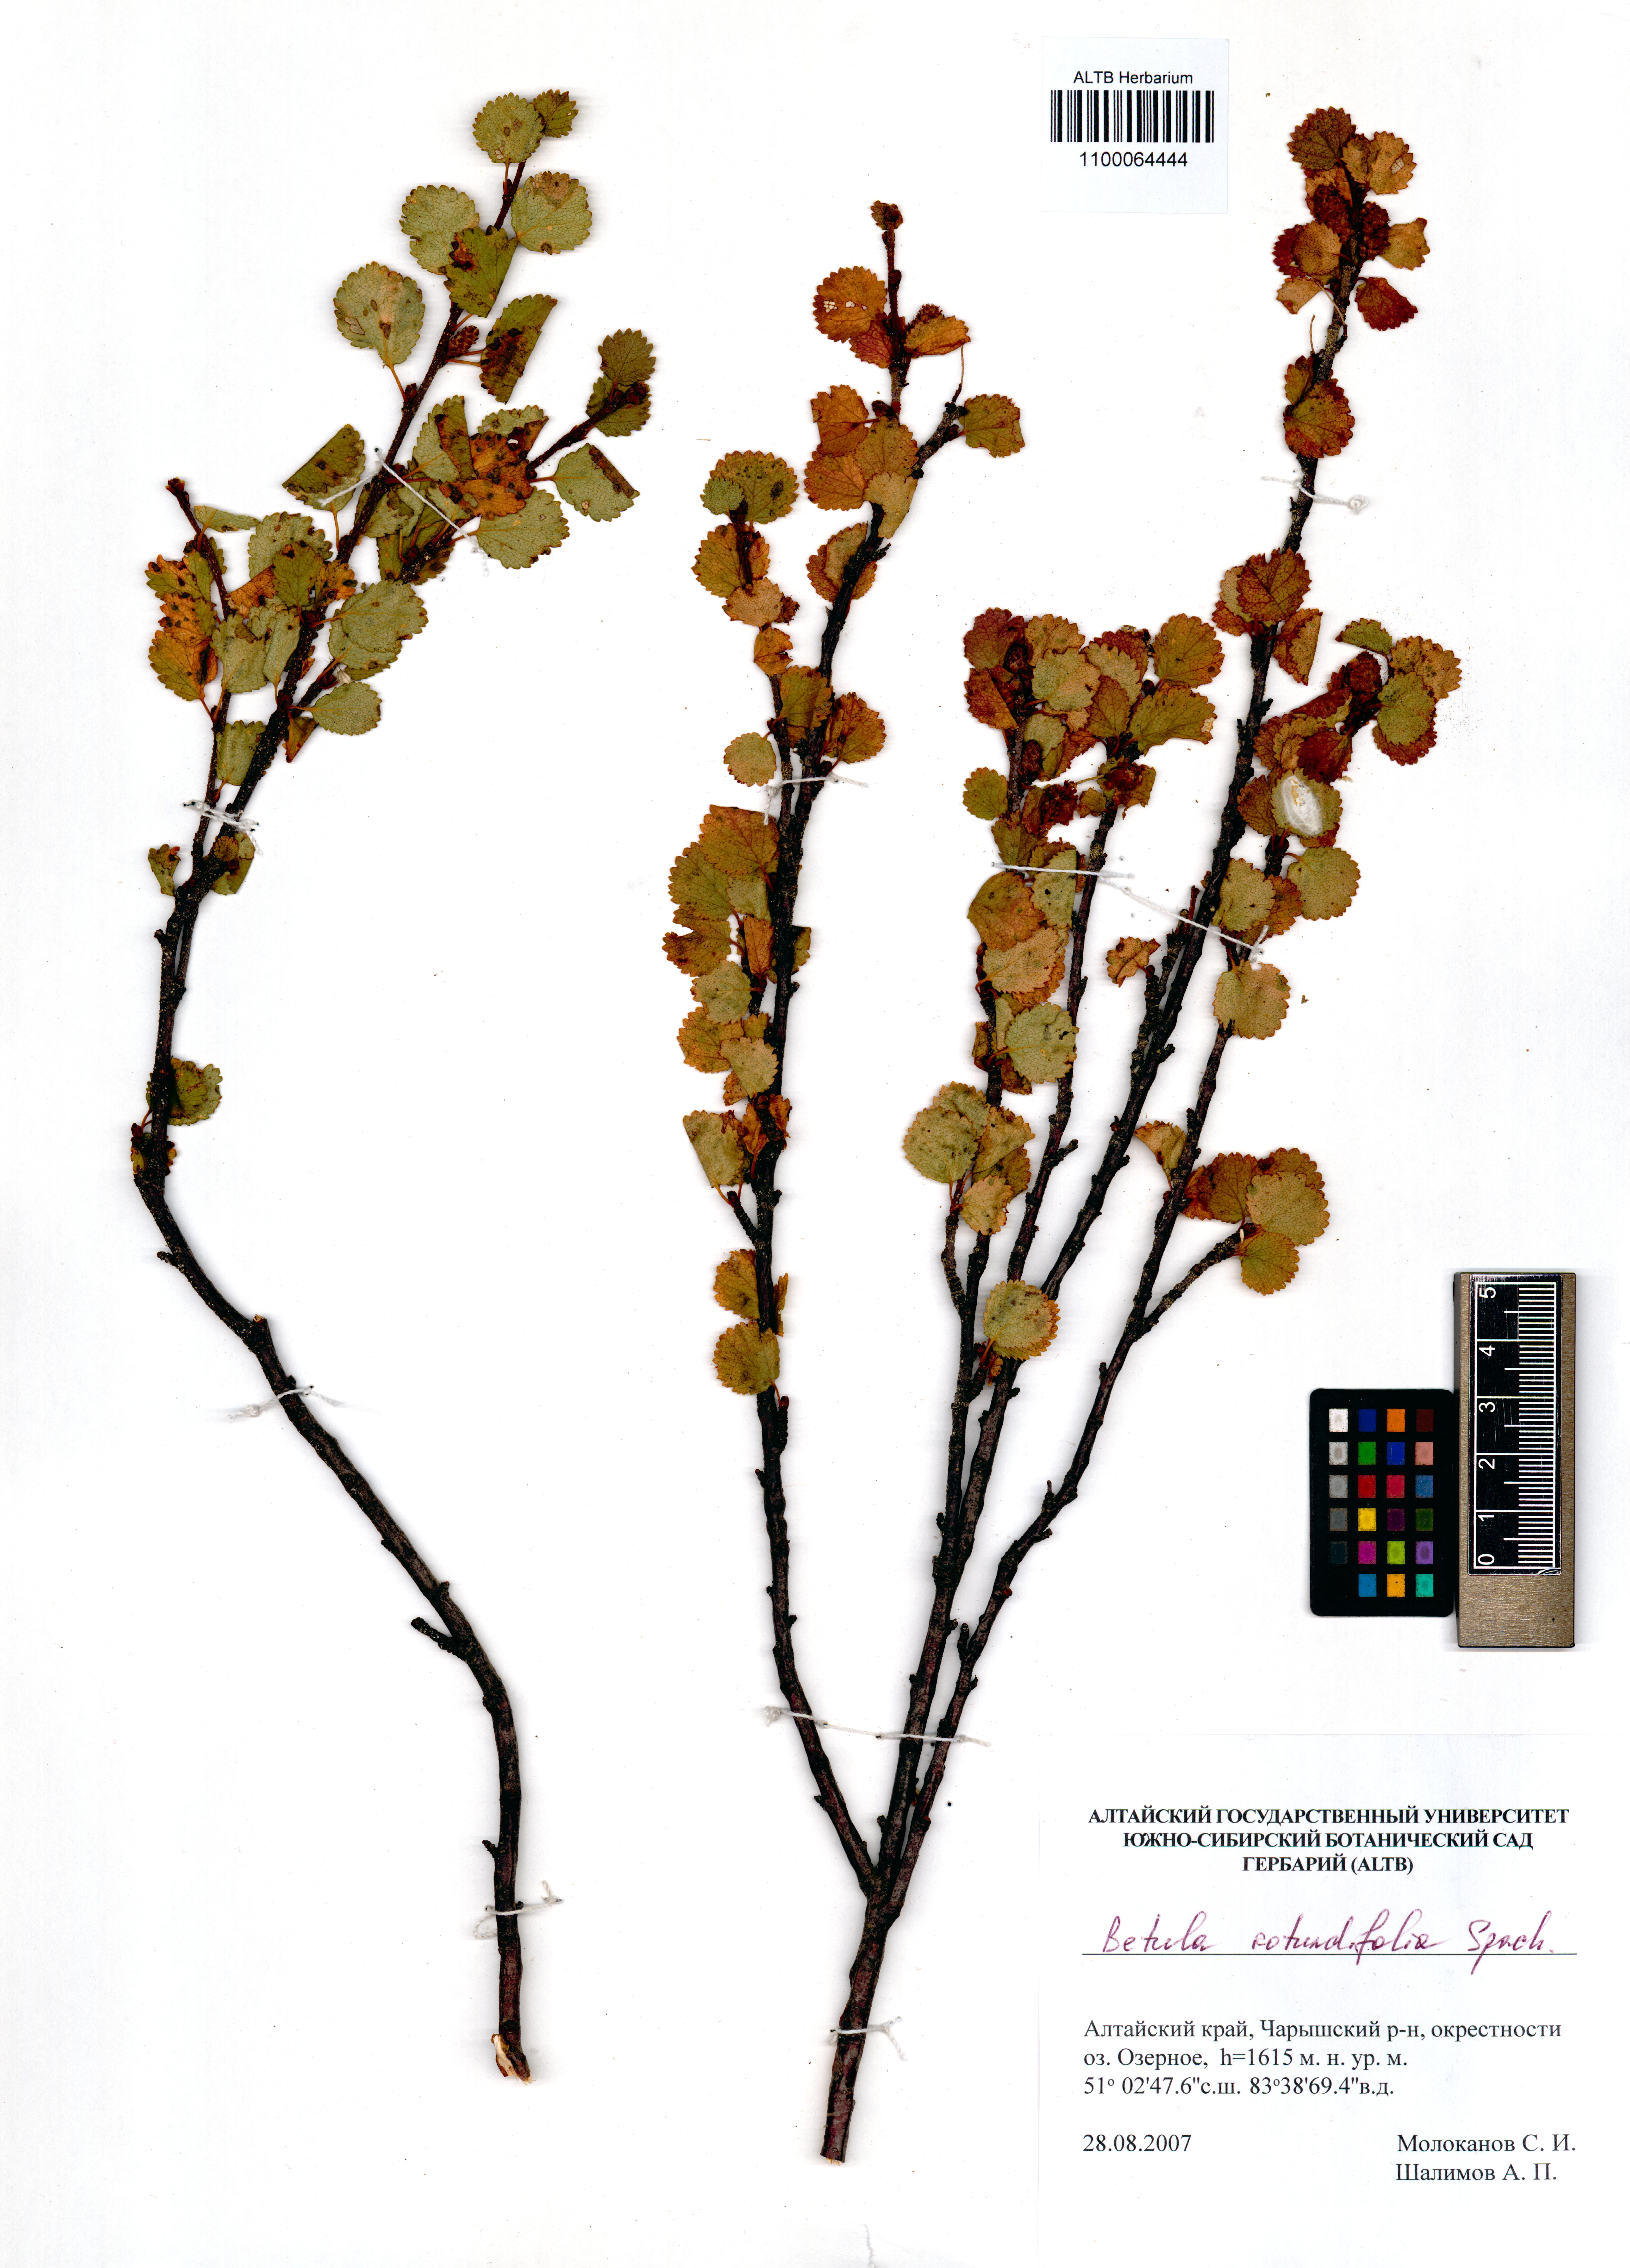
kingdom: Plantae
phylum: Tracheophyta
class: Magnoliopsida
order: Fagales
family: Betulaceae
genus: Betula
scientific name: Betula glandulosa
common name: Dwarf birch
